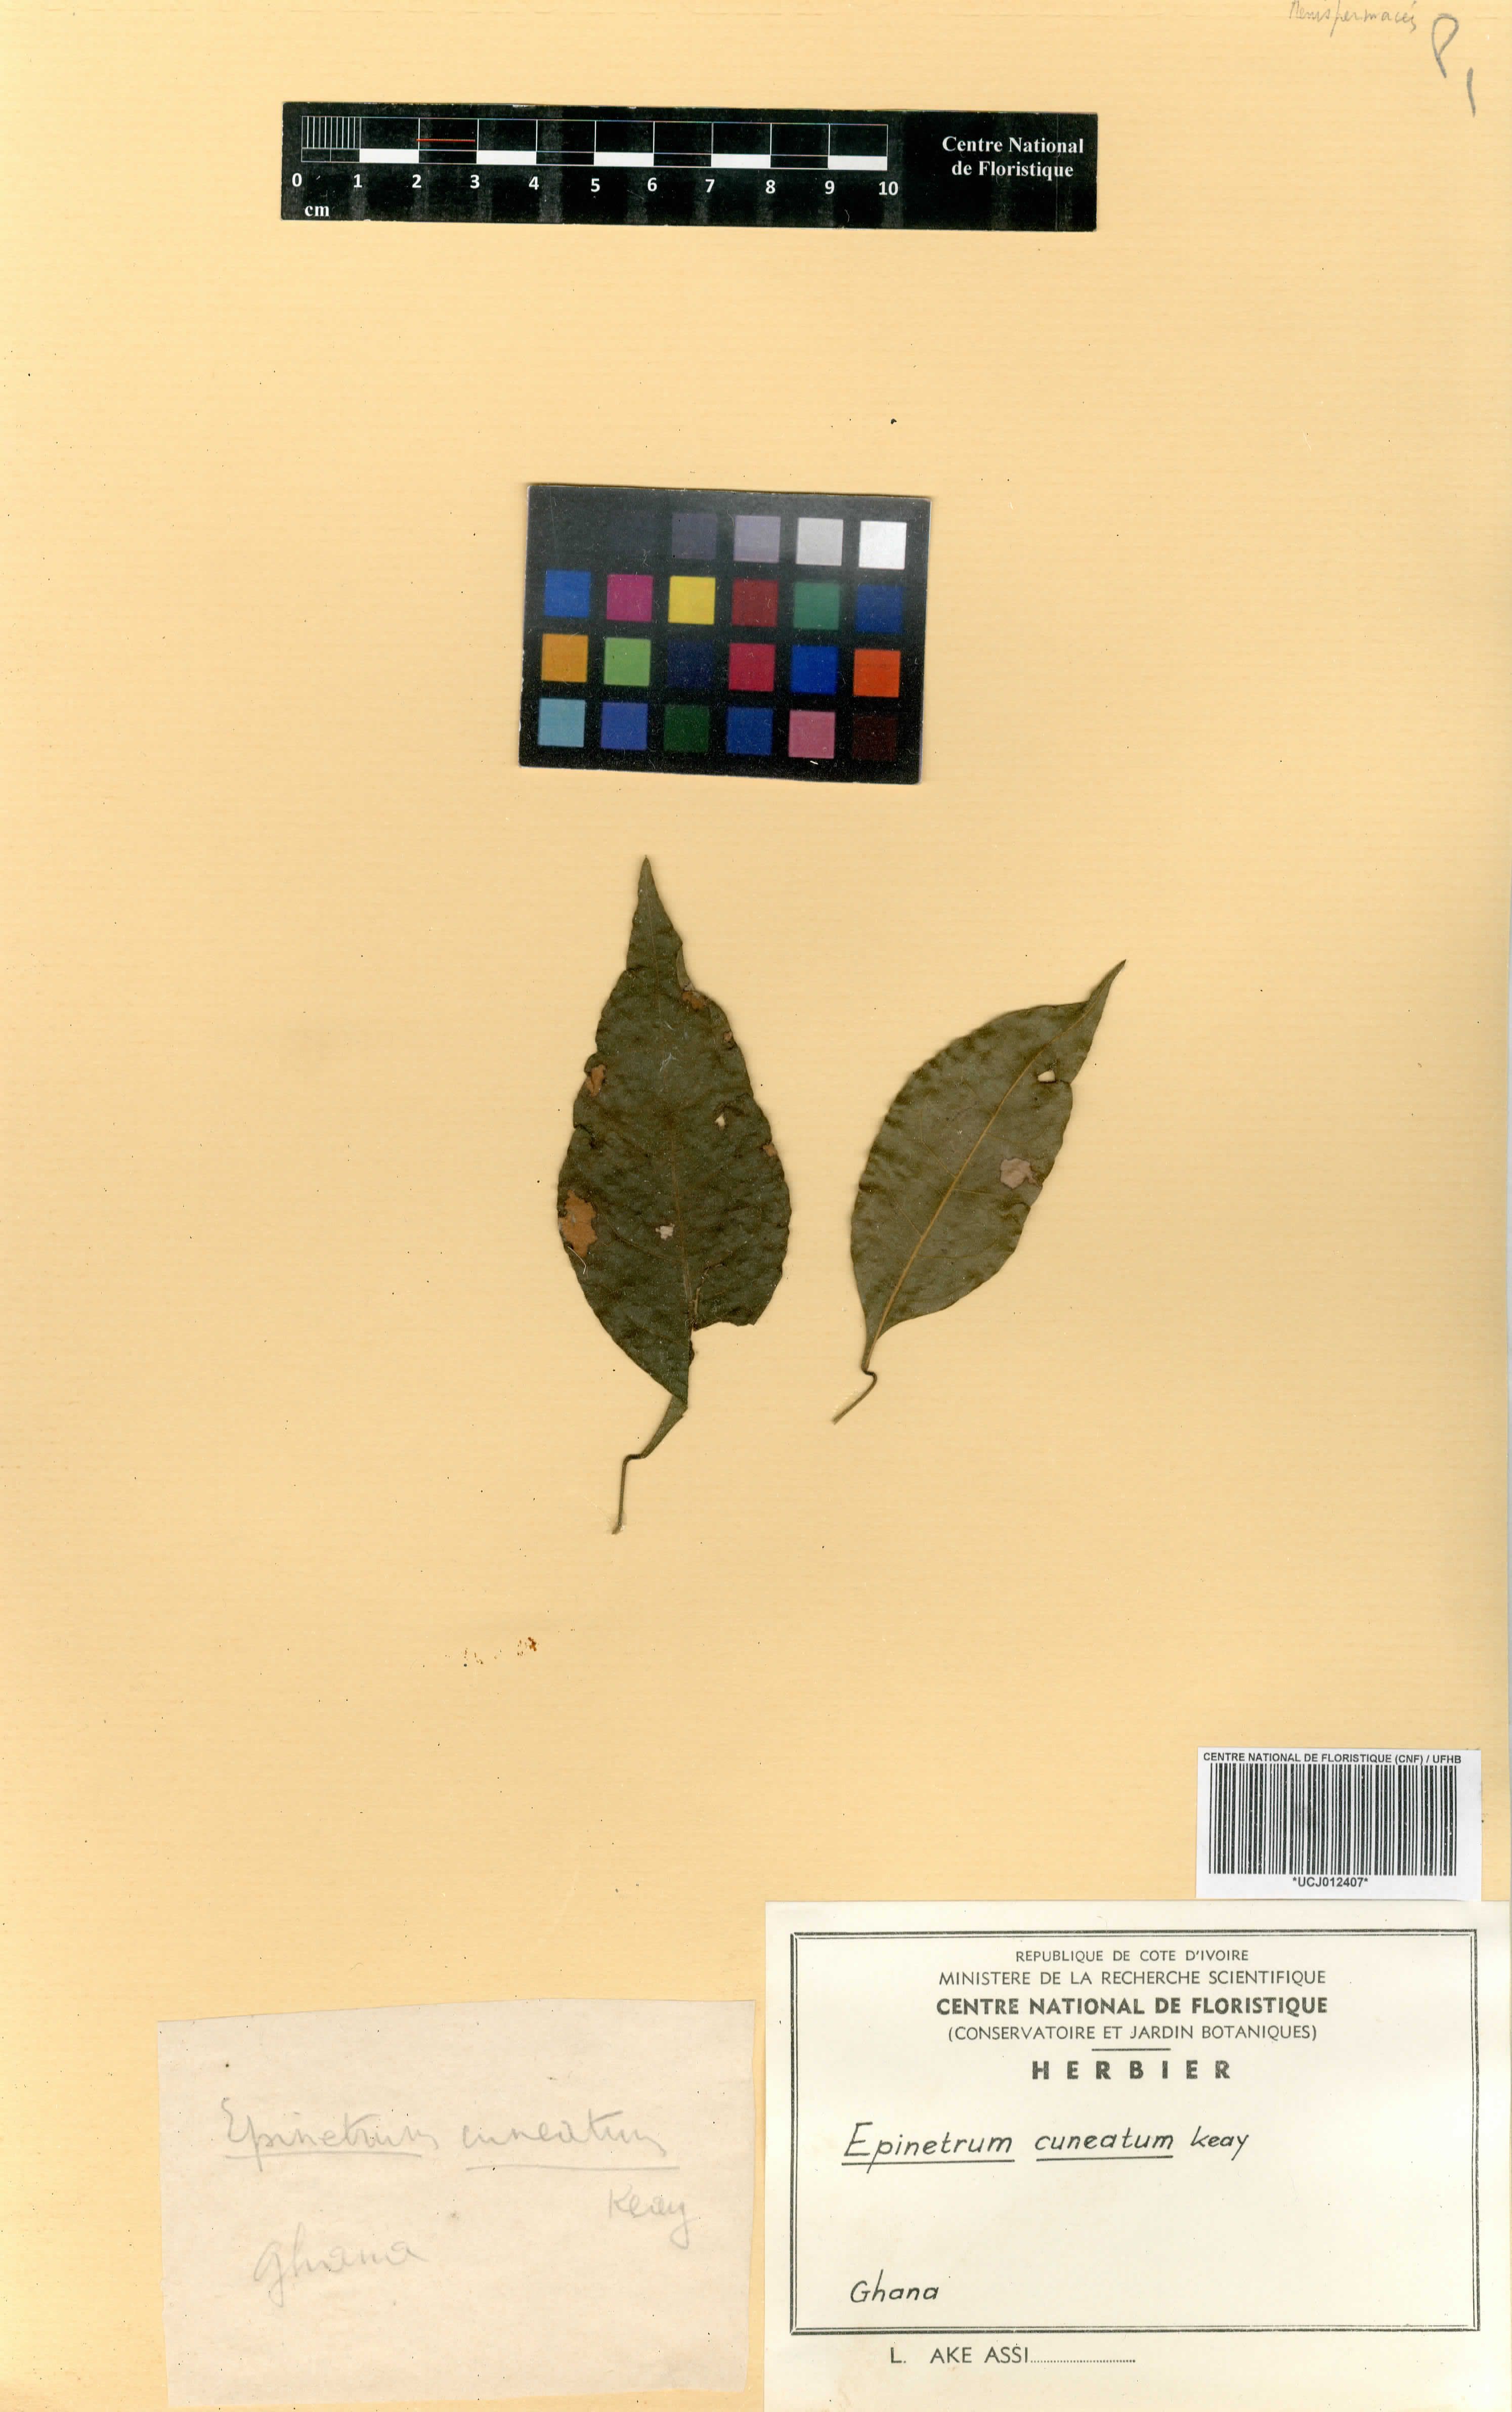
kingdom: Plantae
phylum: Tracheophyta
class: Magnoliopsida
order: Ranunculales
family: Menispermaceae
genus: Albertisia
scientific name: Albertisia cuneata
